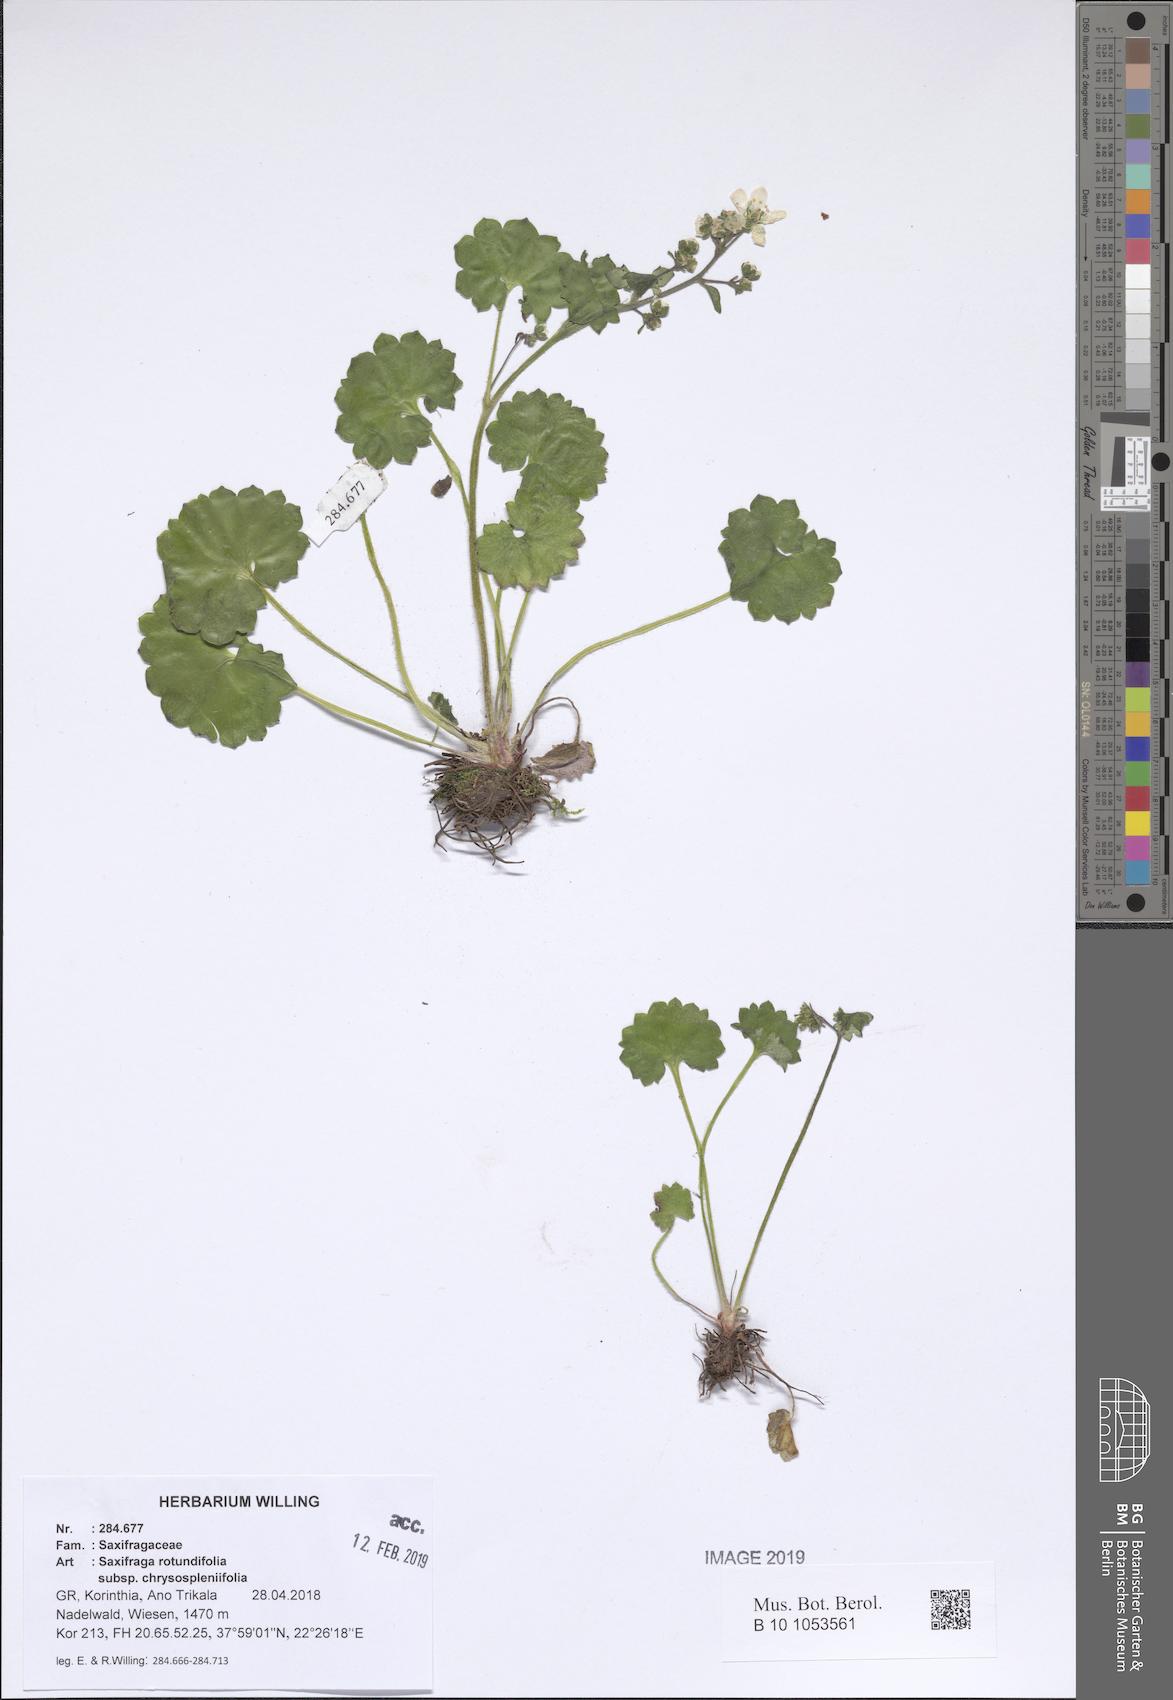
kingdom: Plantae
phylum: Tracheophyta
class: Magnoliopsida
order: Saxifragales
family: Saxifragaceae
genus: Saxifraga
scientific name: Saxifraga rotundifolia
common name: Round-leaved saxifrage
